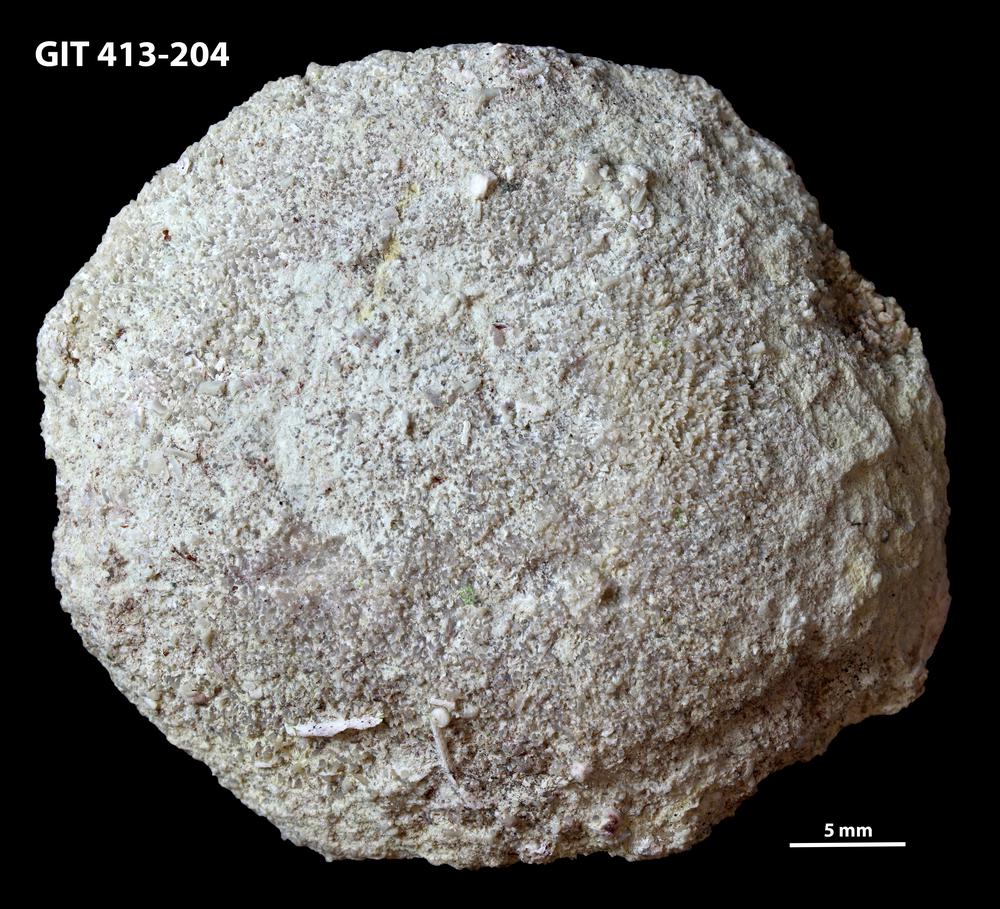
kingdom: Animalia
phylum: Porifera
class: Calcarea
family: Astraeospongiidae
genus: Astraeospongium
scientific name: Astraeospongium
